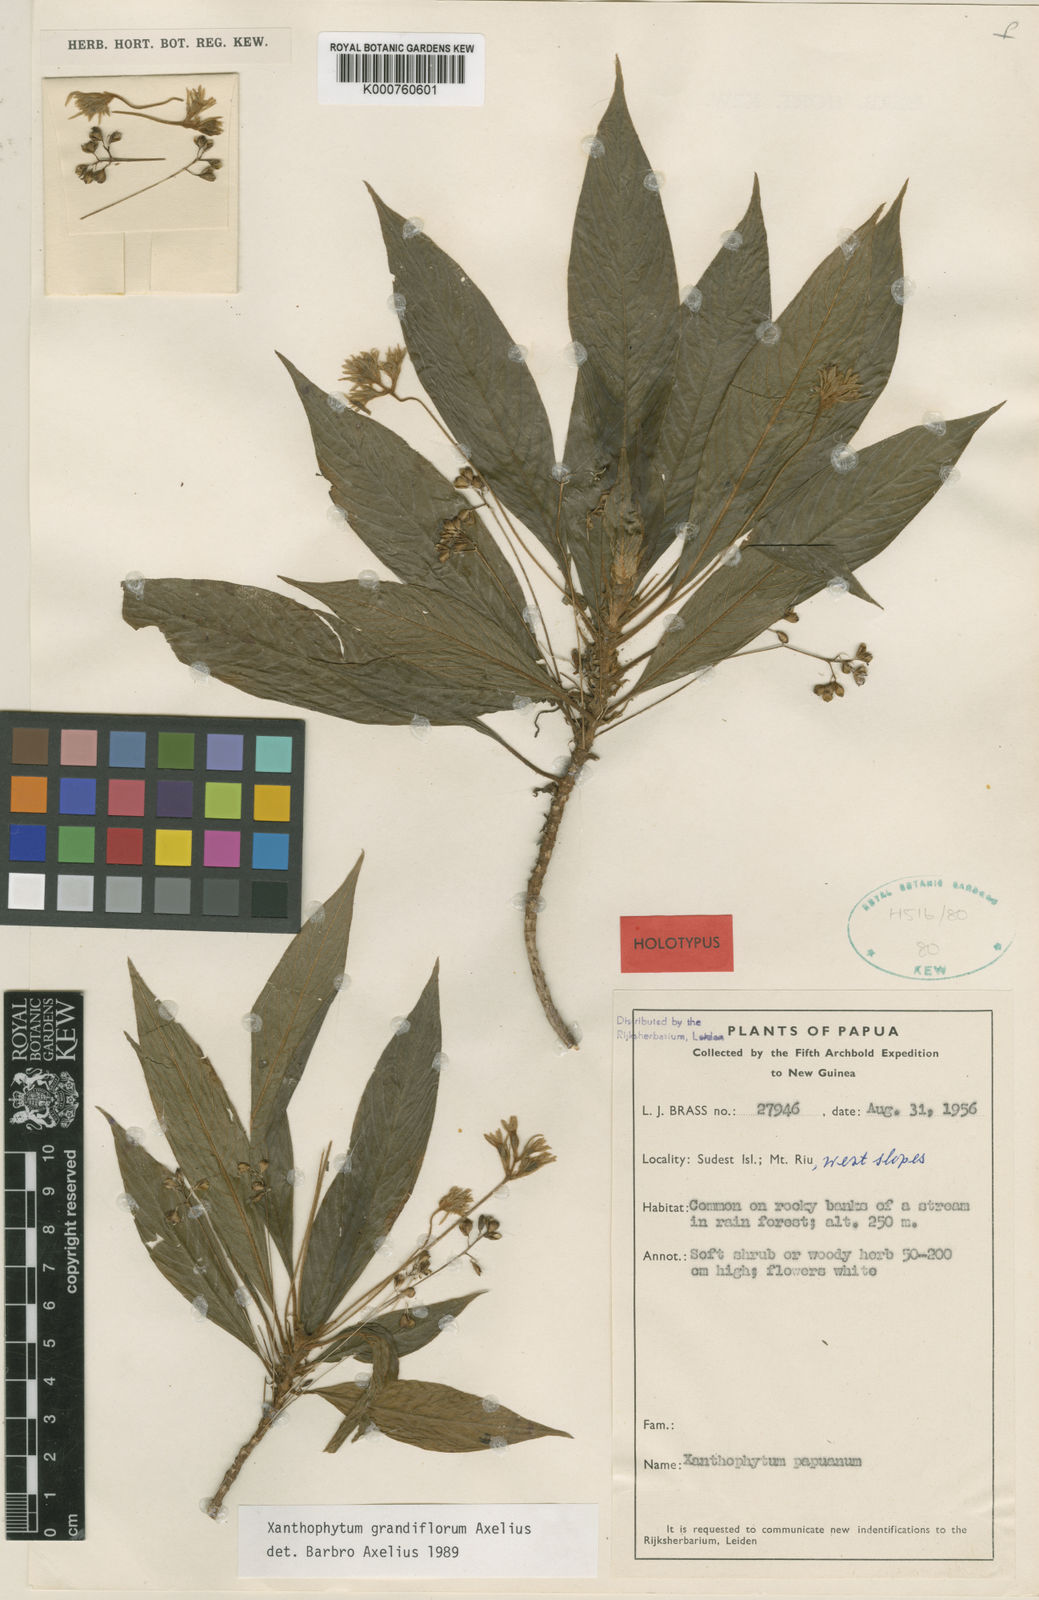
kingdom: Plantae
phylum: Tracheophyta
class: Magnoliopsida
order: Gentianales
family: Rubiaceae
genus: Xanthophytum
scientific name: Xanthophytum grandiflorum
